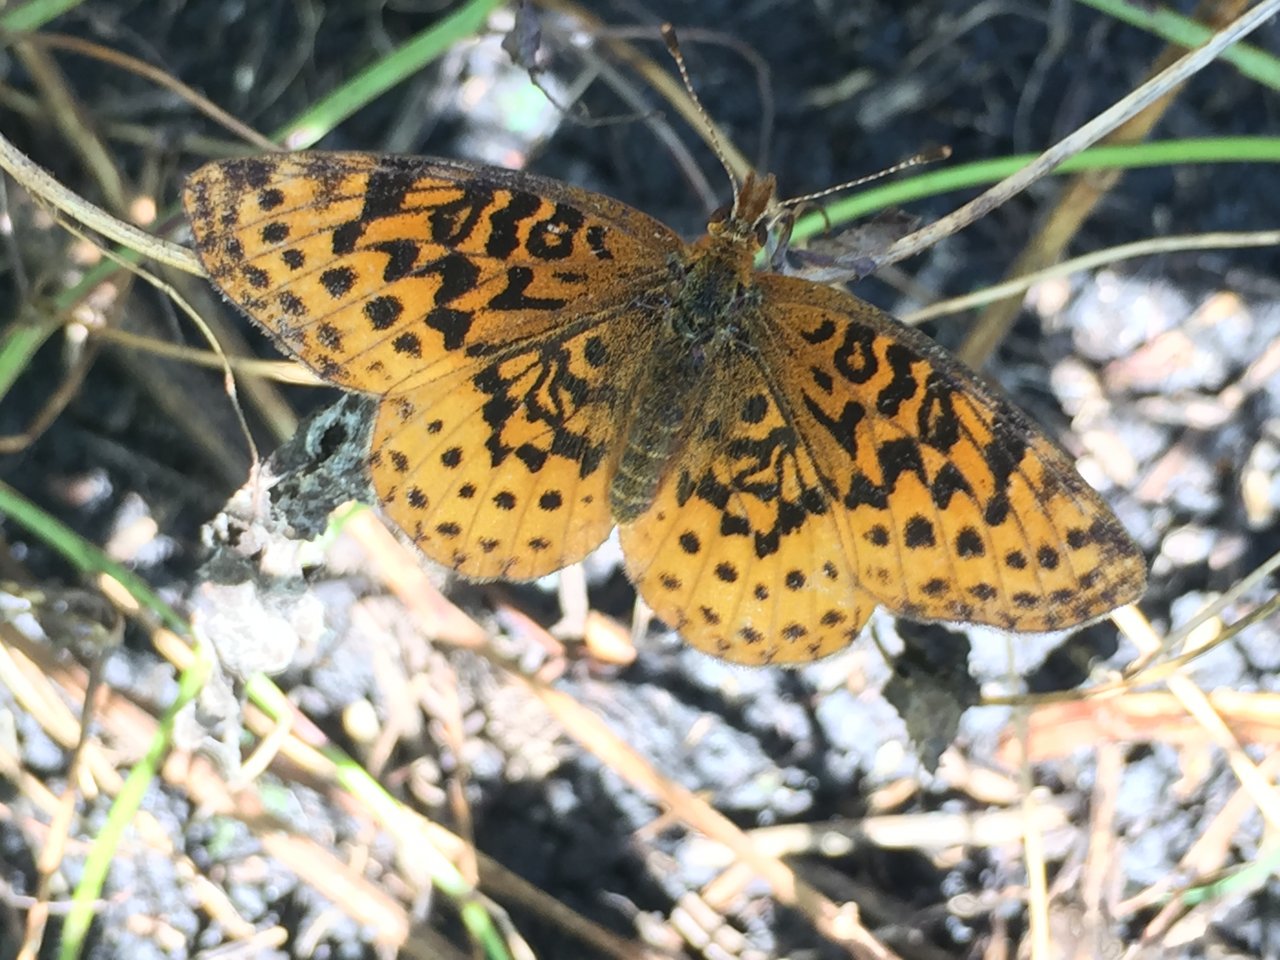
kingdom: Animalia
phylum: Arthropoda
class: Insecta
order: Lepidoptera
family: Nymphalidae
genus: Clossiana
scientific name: Clossiana toddi
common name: Meadow Fritillary
